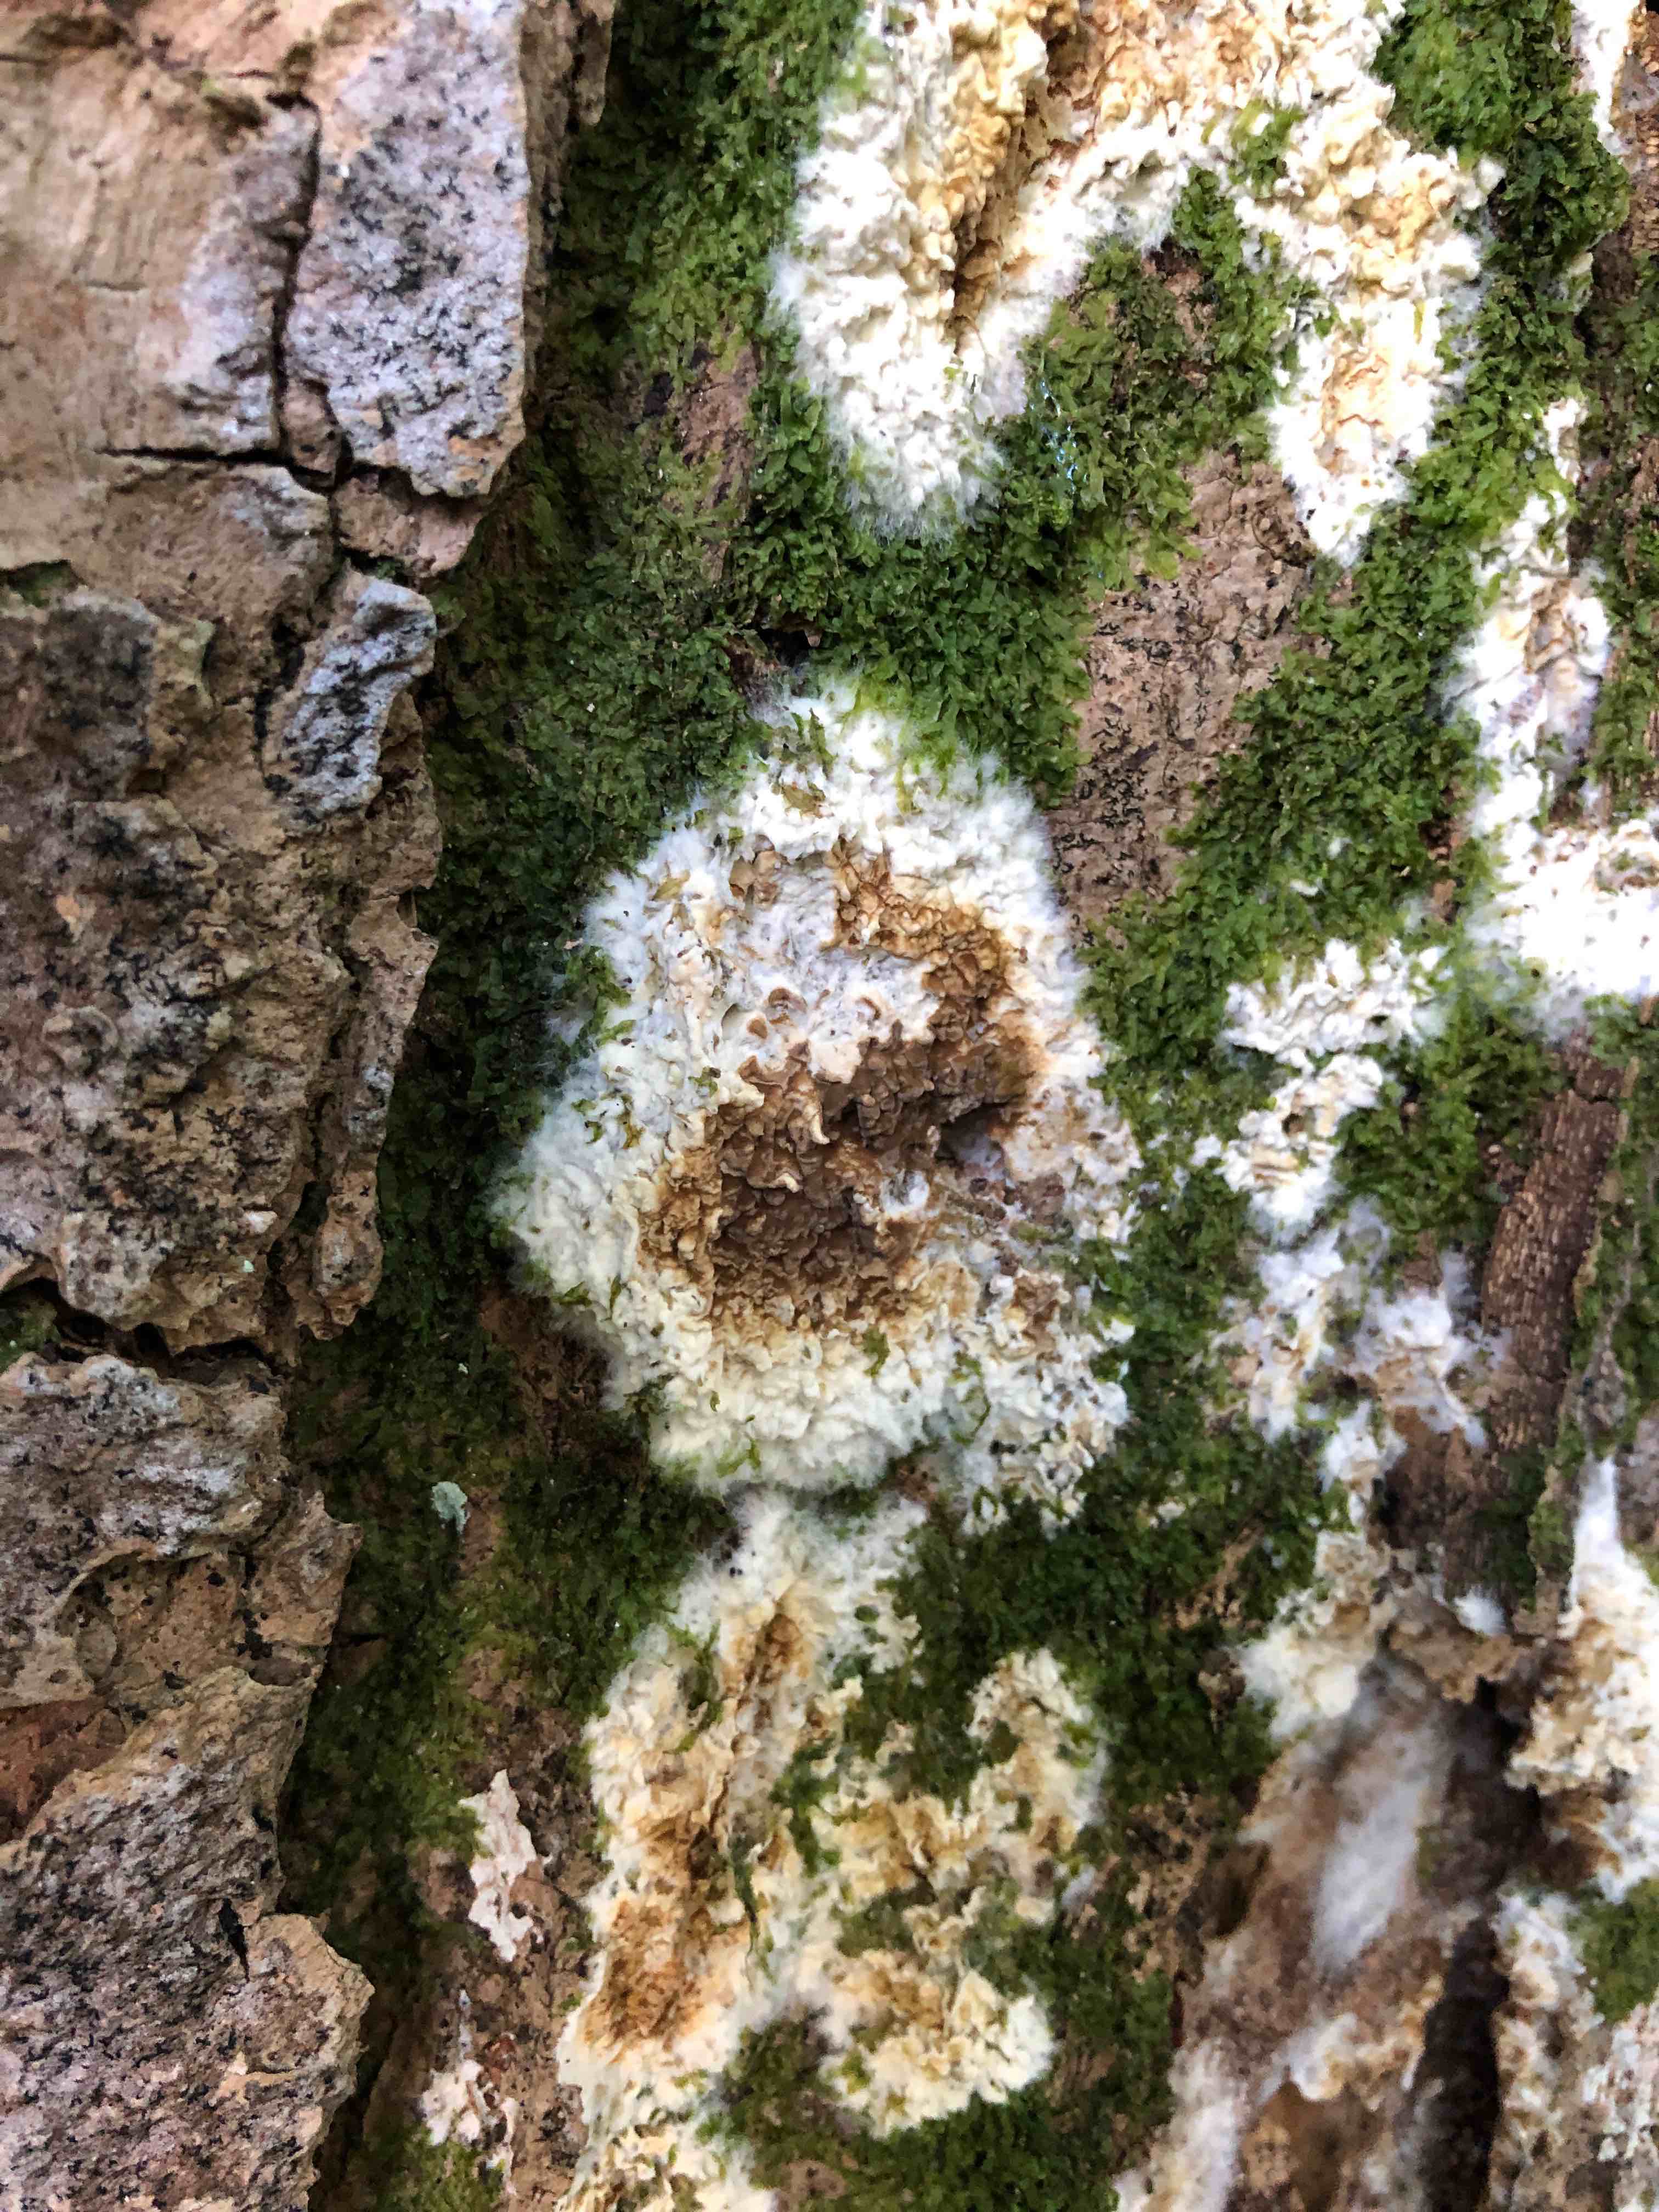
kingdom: Fungi
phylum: Basidiomycota
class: Agaricomycetes
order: Boletales
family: Coniophoraceae
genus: Coniophora
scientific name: Coniophora puteana
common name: gul tømmersvamp
